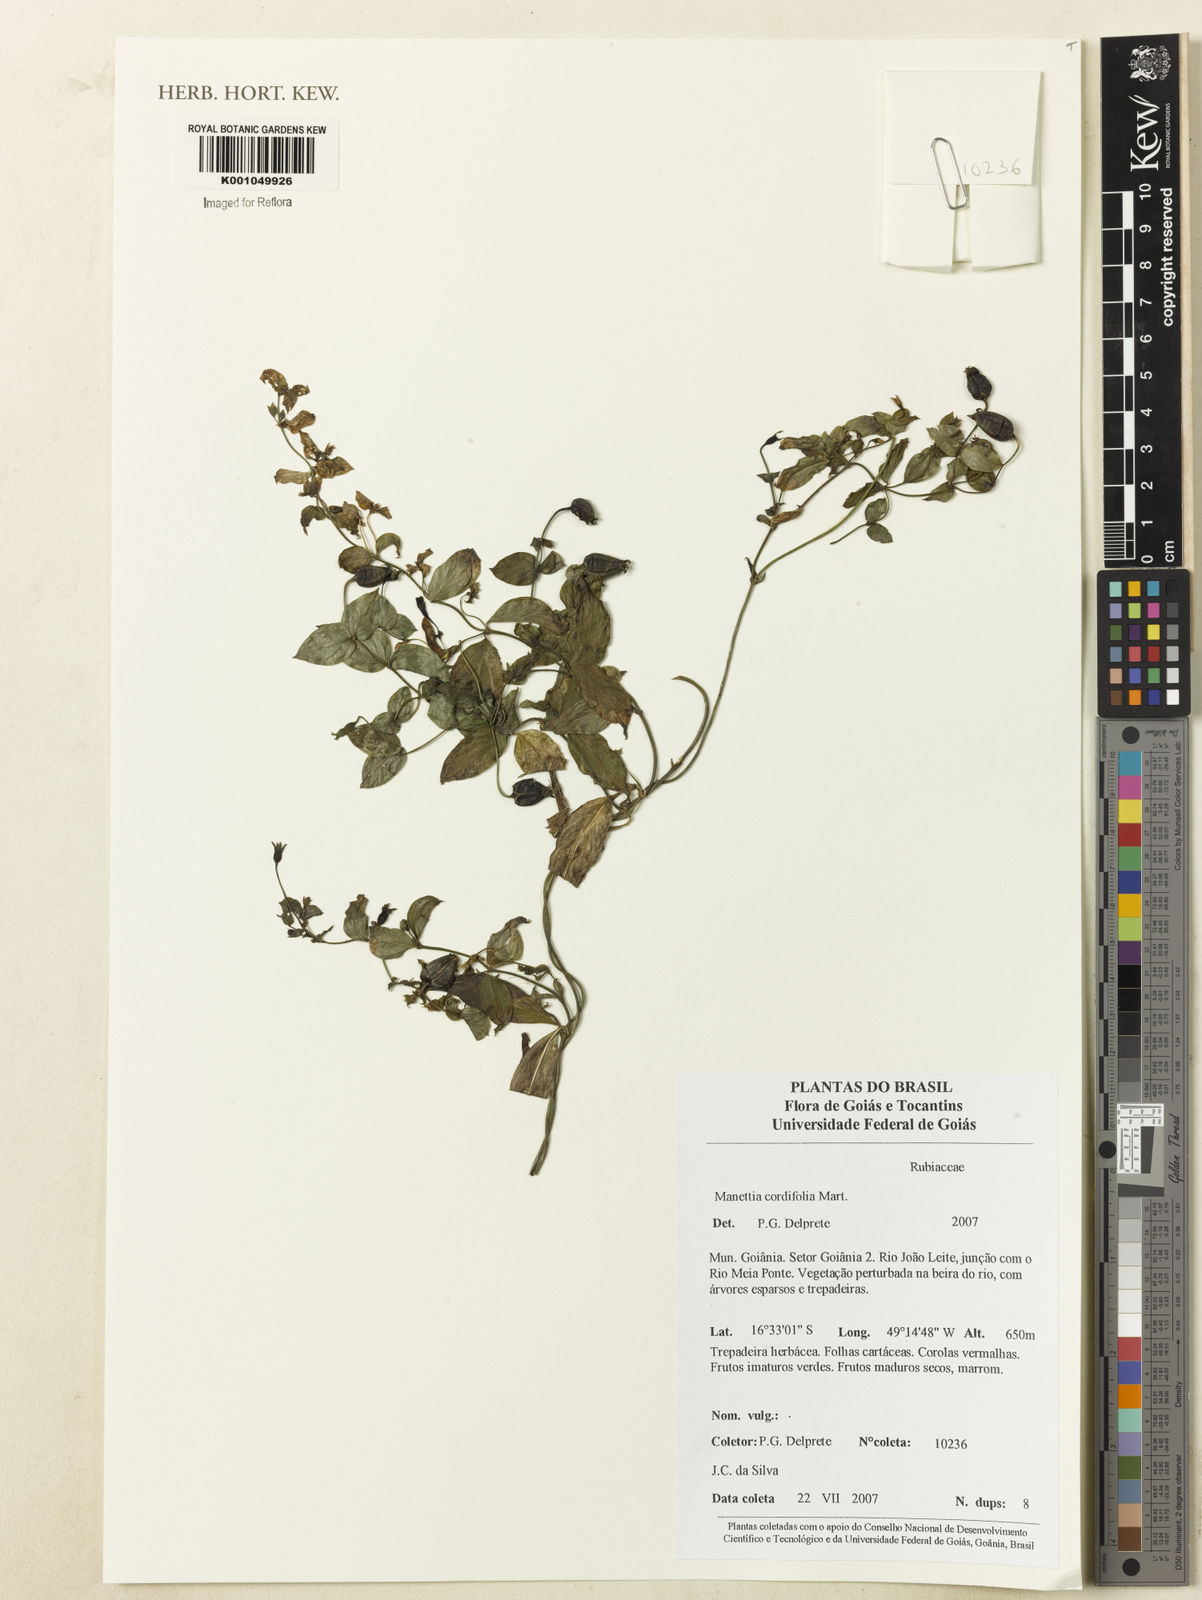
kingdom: Plantae
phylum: Tracheophyta
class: Magnoliopsida
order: Gentianales
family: Rubiaceae
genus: Manettia
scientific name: Manettia cordifolia
